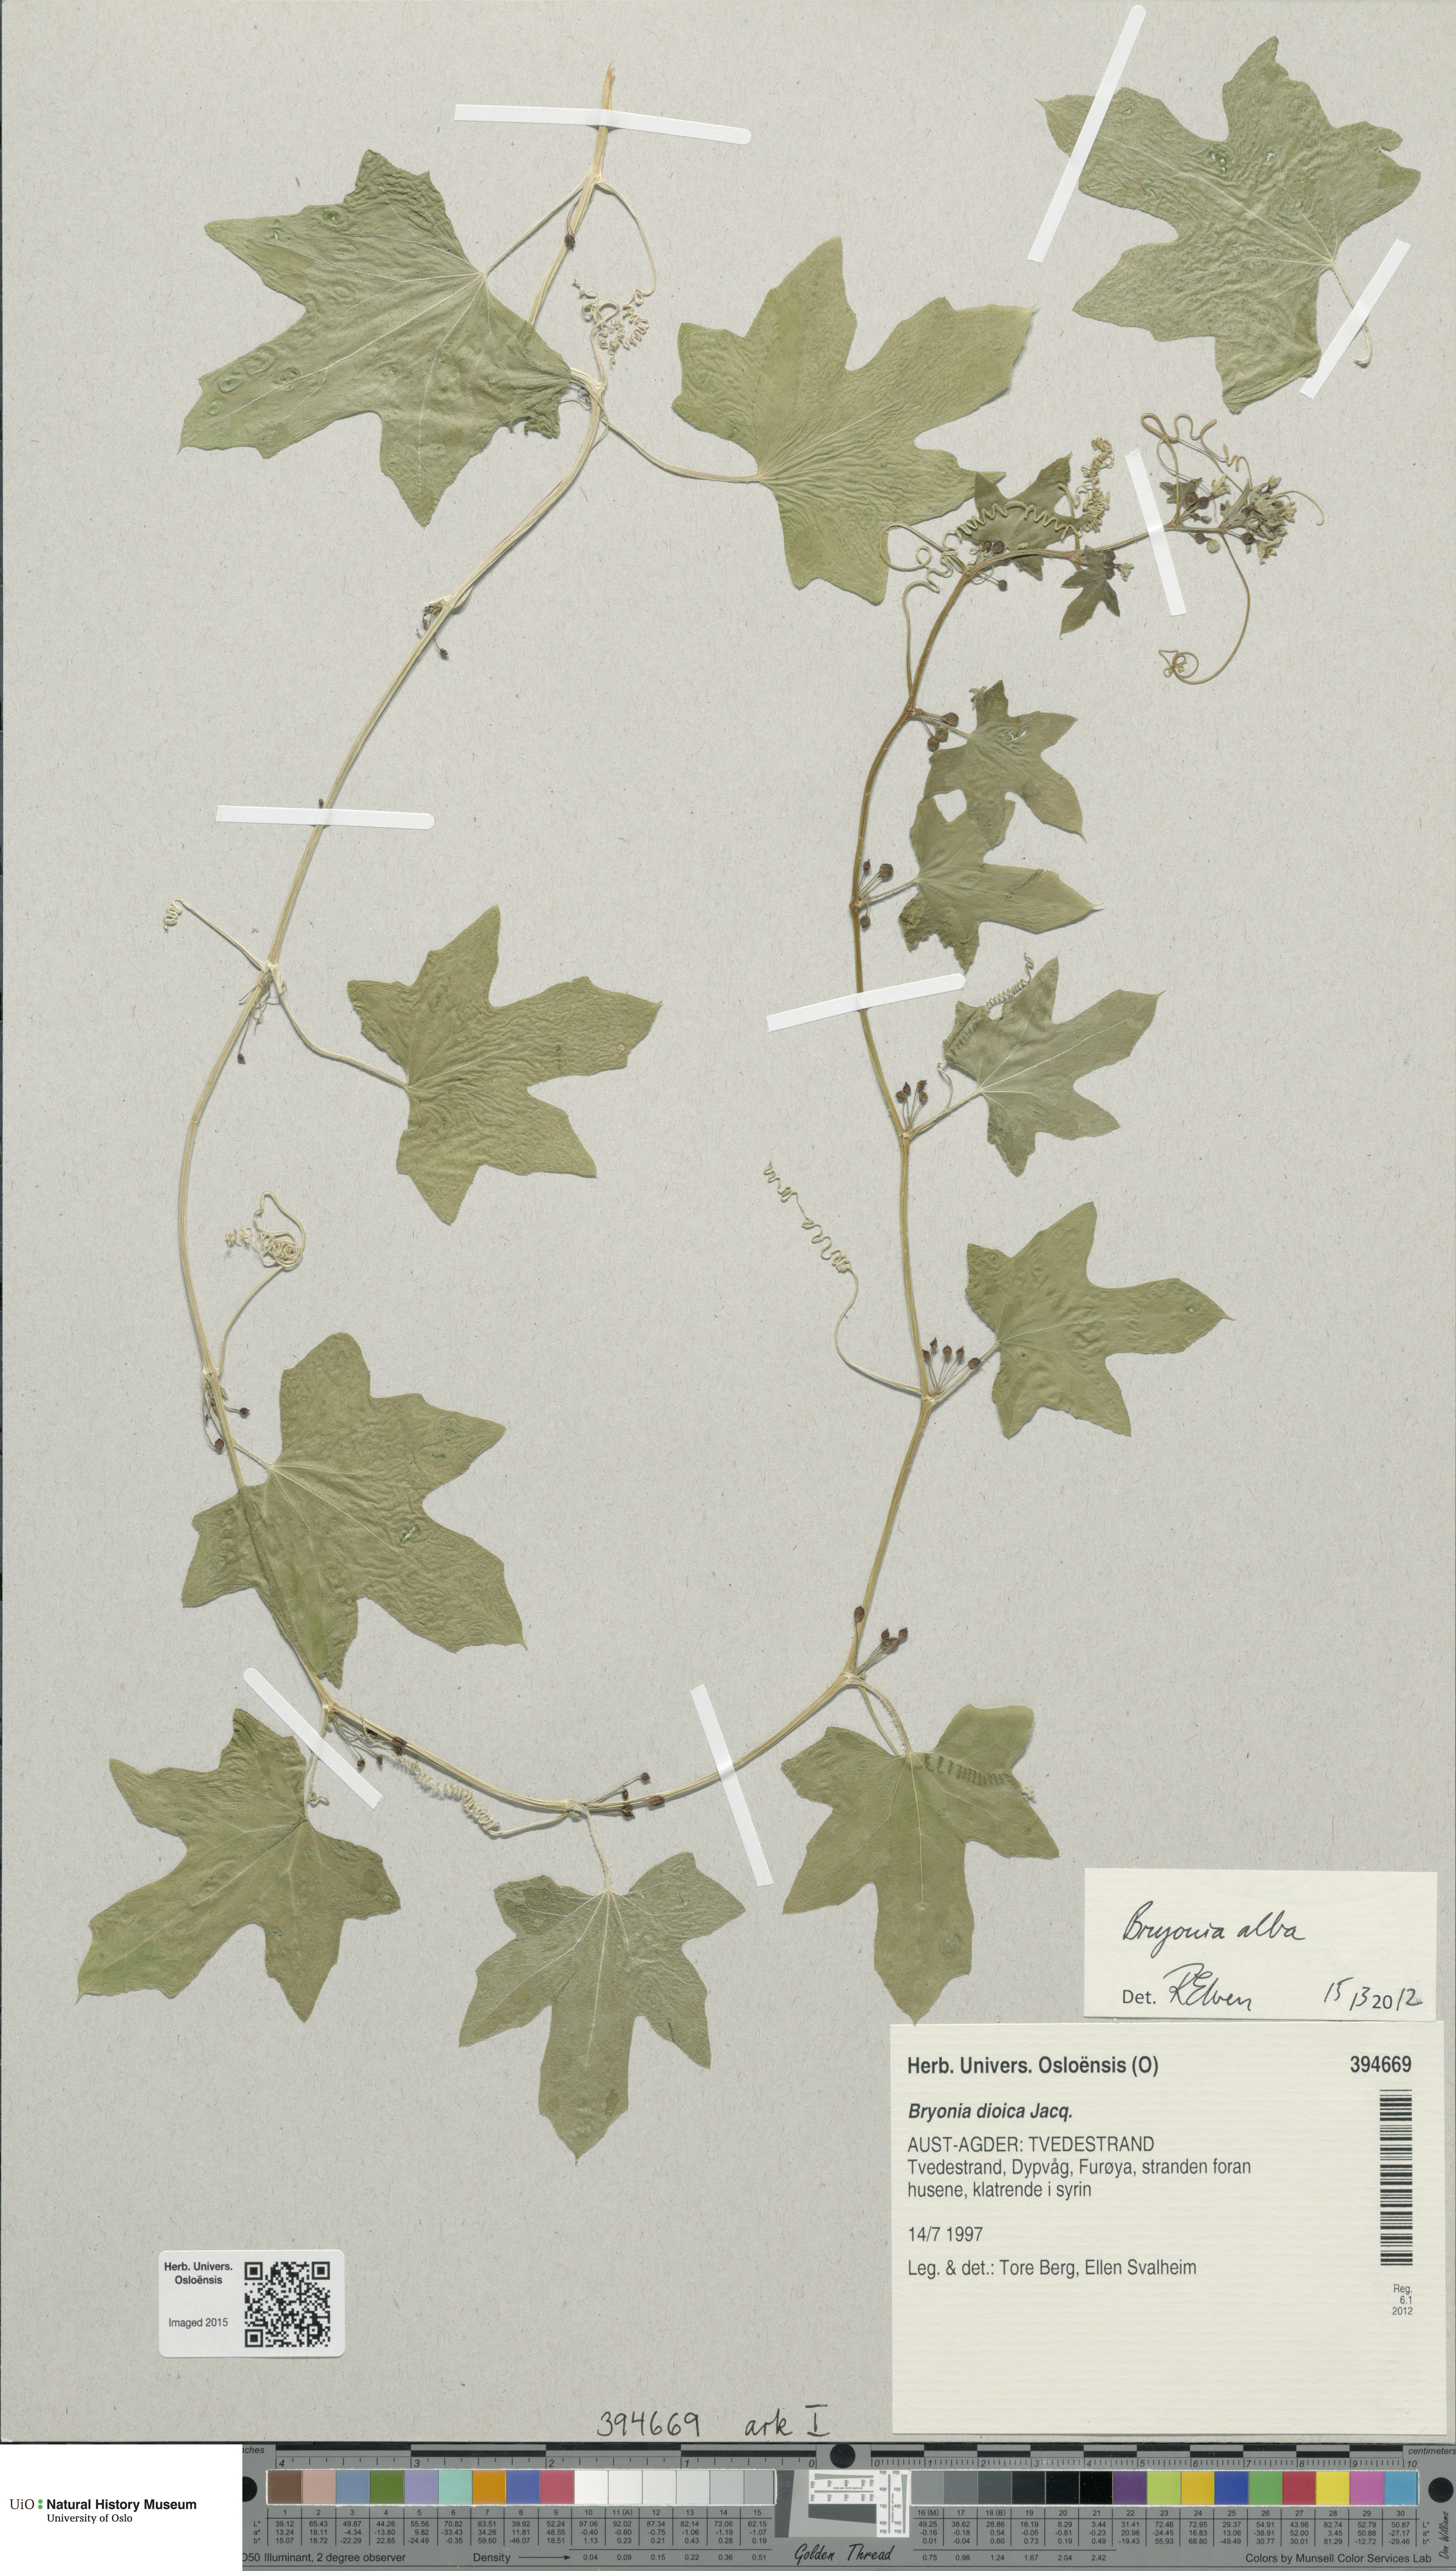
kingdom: Plantae
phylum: Tracheophyta
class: Magnoliopsida
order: Cucurbitales
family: Cucurbitaceae
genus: Bryonia
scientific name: Bryonia alba
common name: White bryony
